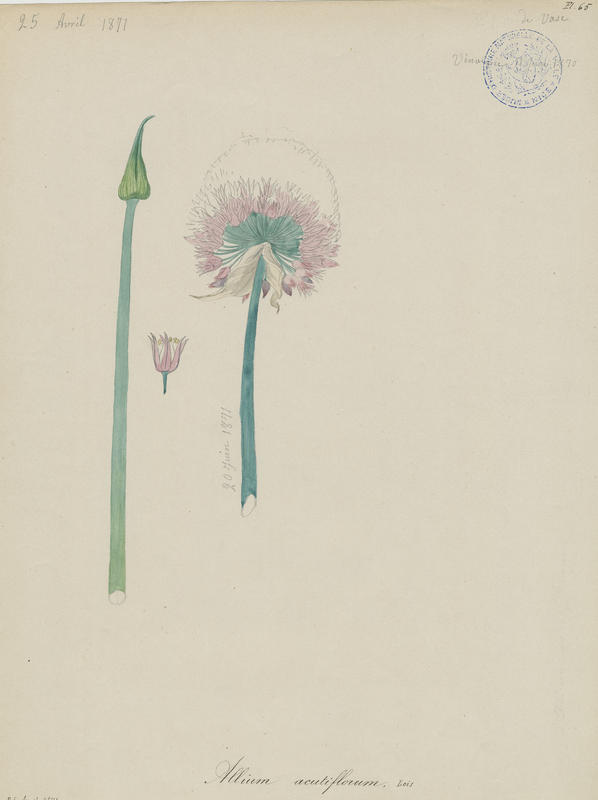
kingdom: Plantae
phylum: Tracheophyta
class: Liliopsida
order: Asparagales
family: Amaryllidaceae
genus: Allium
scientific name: Allium acutiflorum
